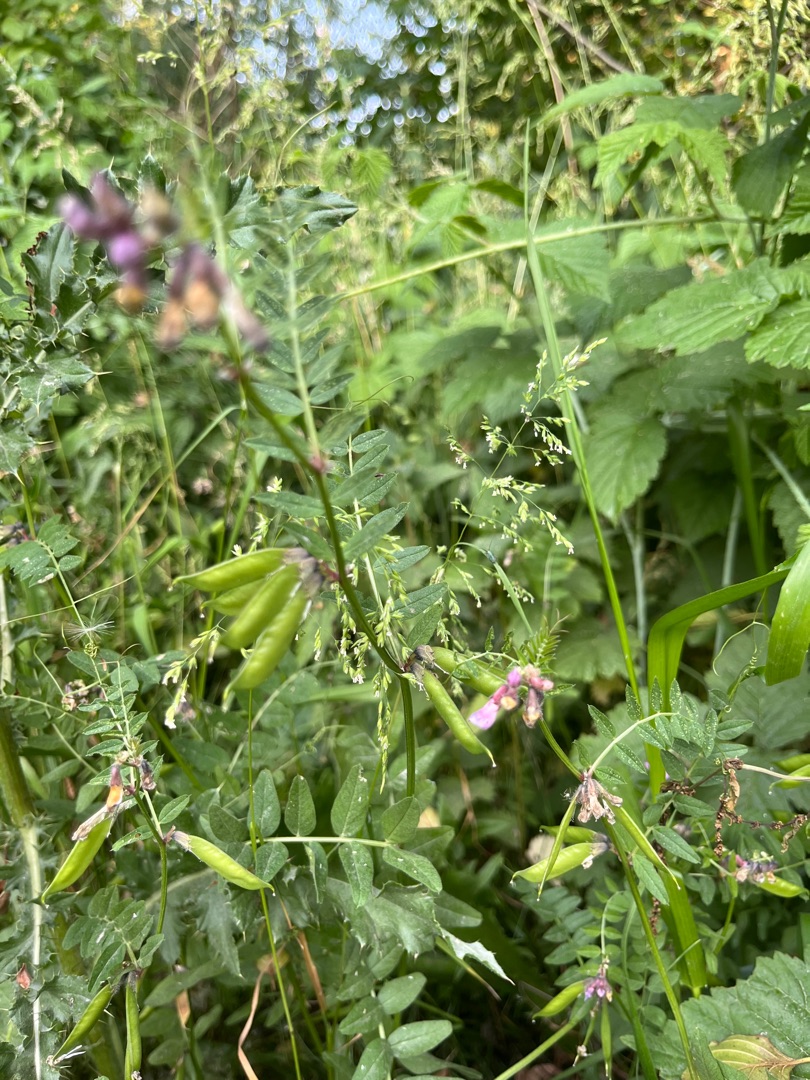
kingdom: Plantae
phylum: Tracheophyta
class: Magnoliopsida
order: Fabales
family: Fabaceae
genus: Vicia
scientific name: Vicia sepium
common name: Gærde-vikke
